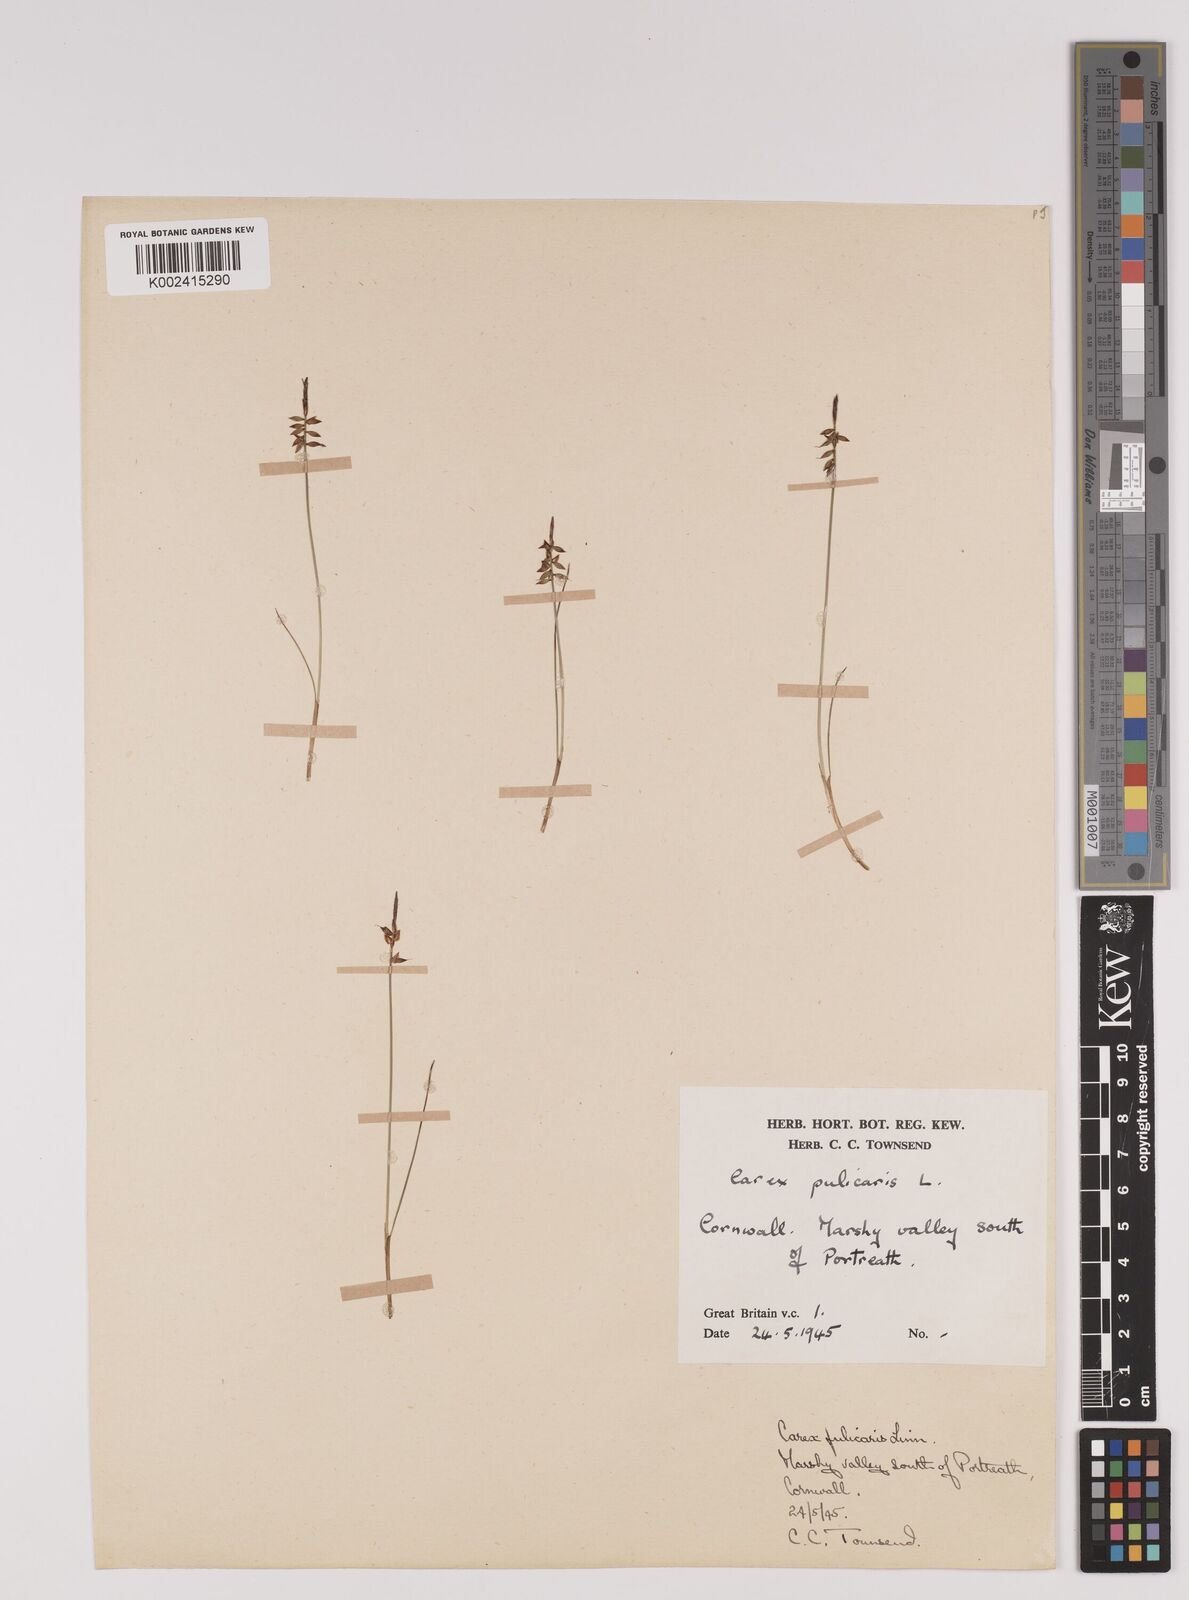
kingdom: Plantae
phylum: Tracheophyta
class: Liliopsida
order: Poales
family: Cyperaceae
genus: Carex
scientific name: Carex pulicaris
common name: Flea sedge
